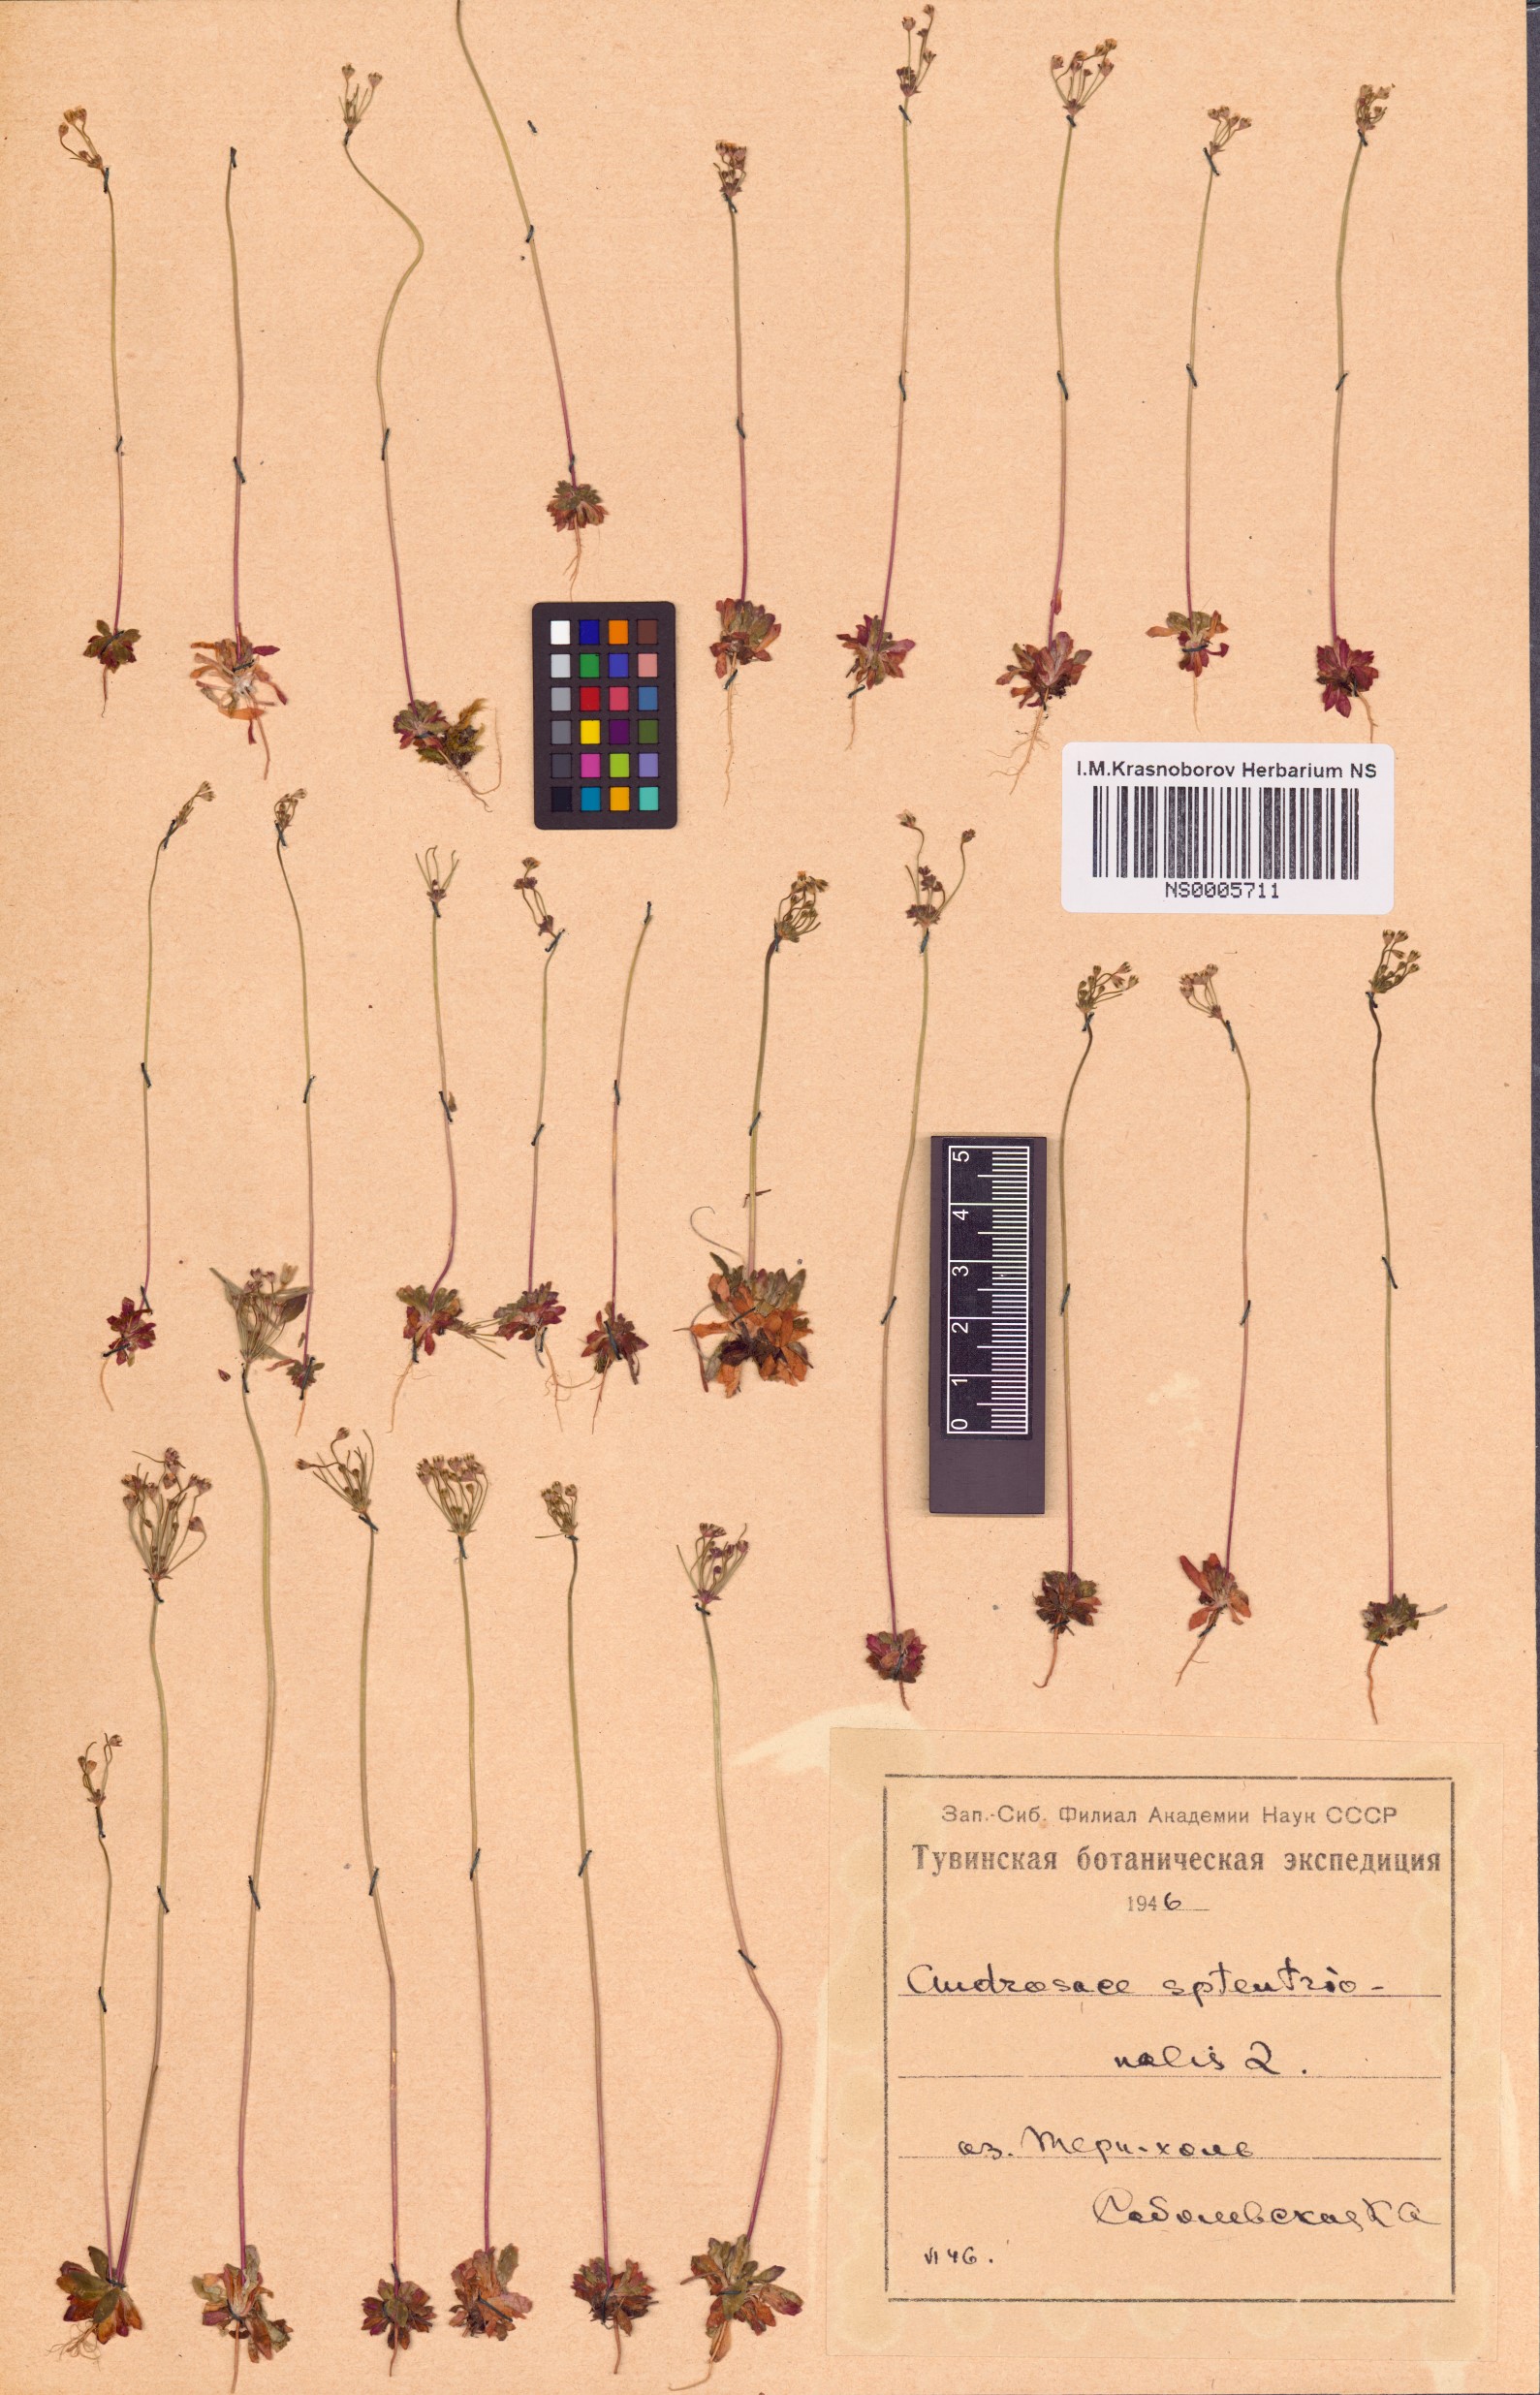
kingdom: Plantae
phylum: Tracheophyta
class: Magnoliopsida
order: Ericales
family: Primulaceae
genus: Androsace
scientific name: Androsace septentrionalis
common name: Hairy northern fairy-candelabra
